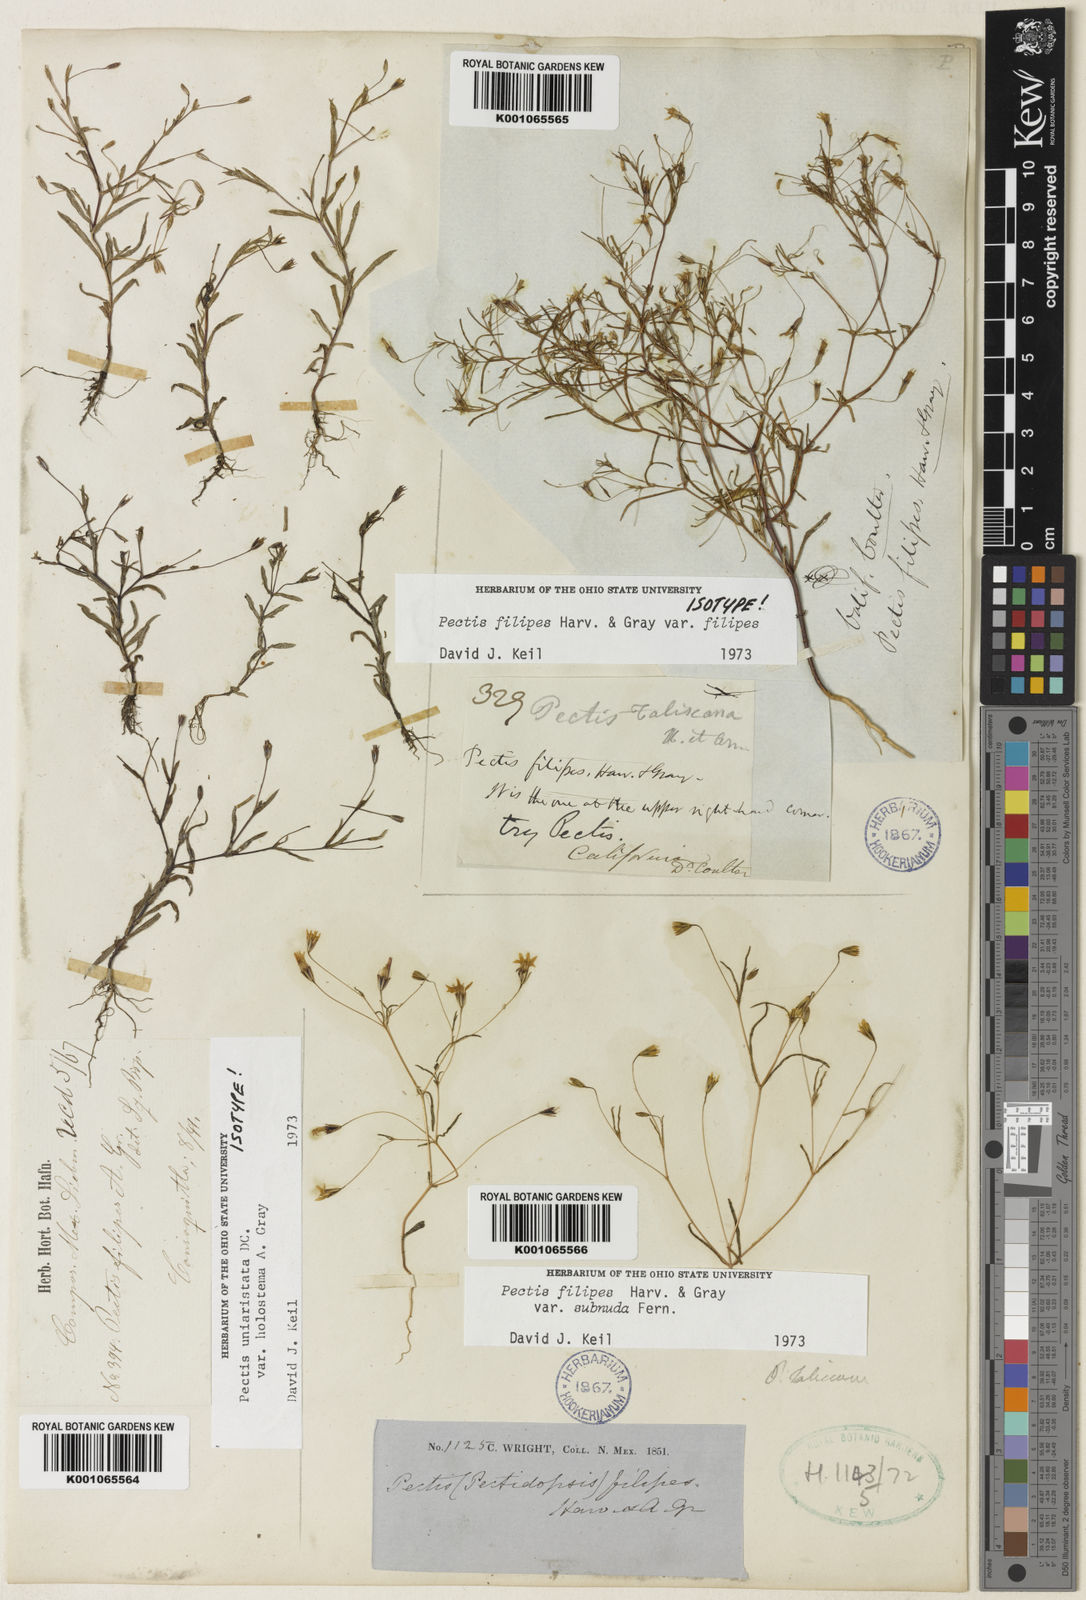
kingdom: Plantae
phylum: Tracheophyta
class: Magnoliopsida
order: Asterales
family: Asteraceae
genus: Pectis
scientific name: Pectis filipes
